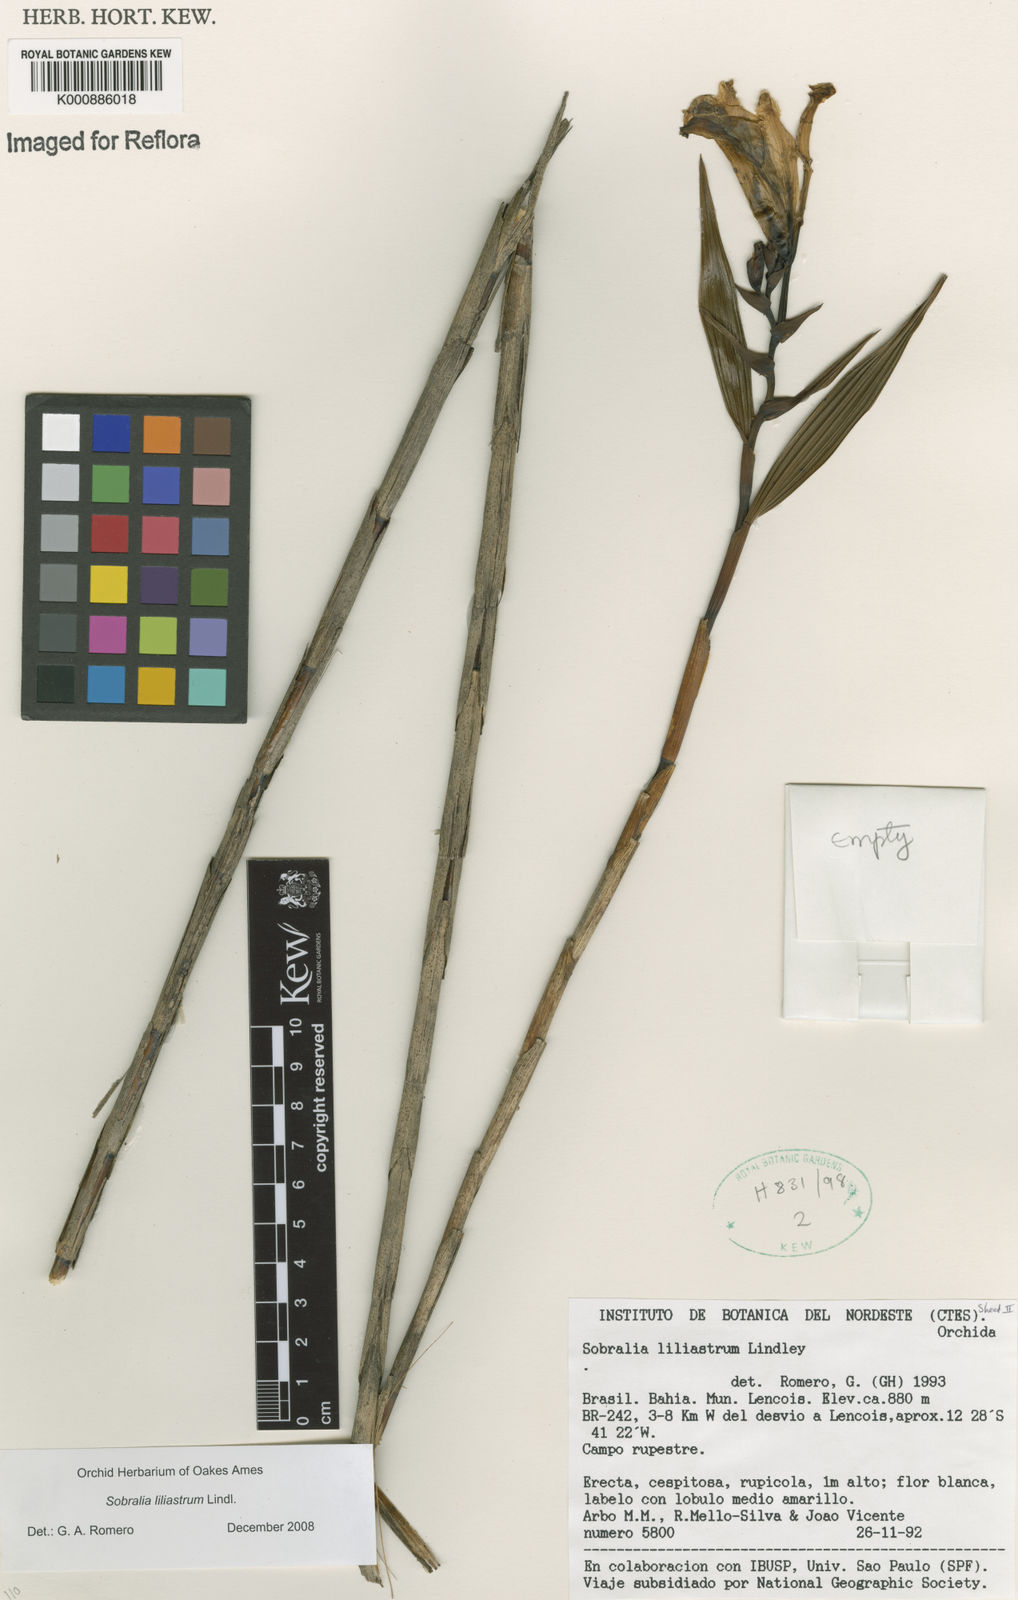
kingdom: Plantae
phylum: Tracheophyta
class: Liliopsida
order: Asparagales
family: Orchidaceae
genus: Sobralia
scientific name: Sobralia liliastrum
